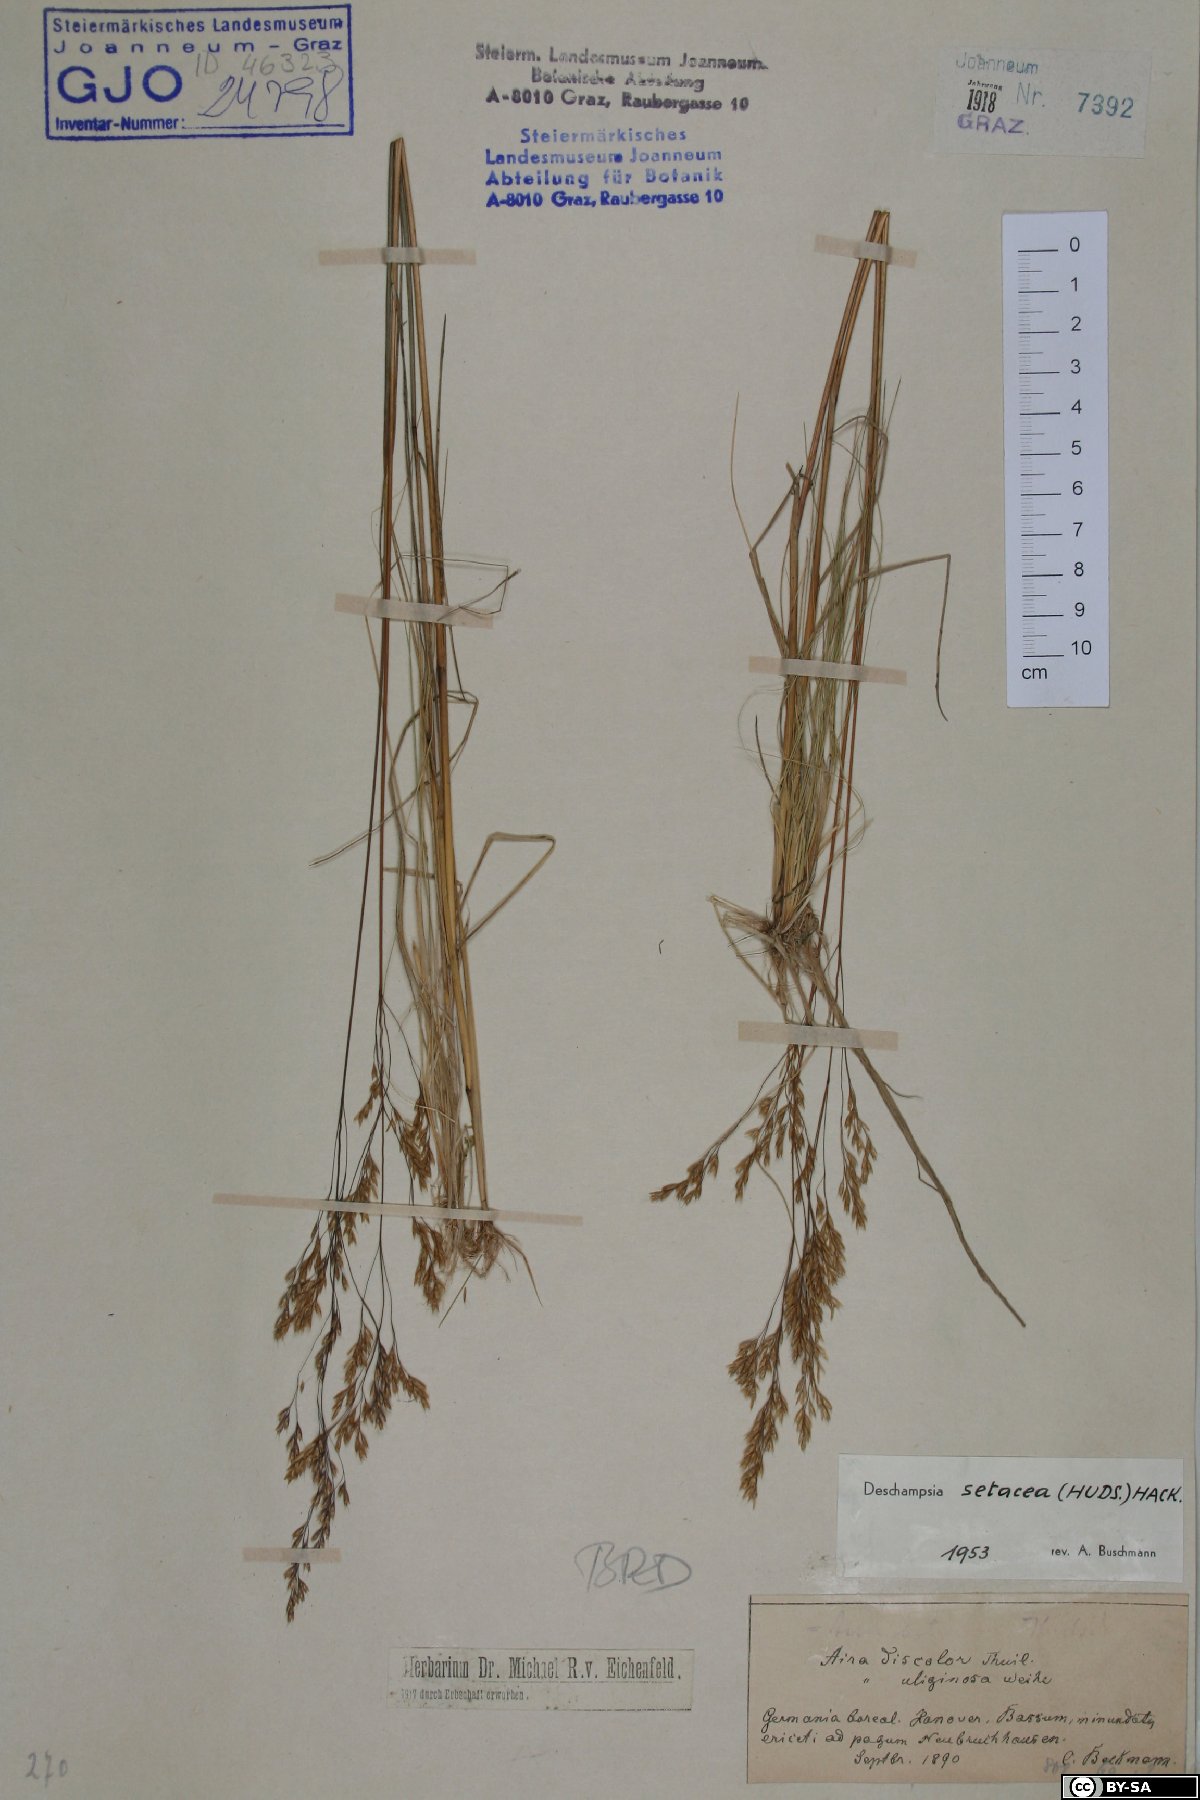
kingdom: Plantae
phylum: Tracheophyta
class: Liliopsida
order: Poales
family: Poaceae
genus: Deschampsia
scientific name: Deschampsia setacea
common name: Bog hair-grass
